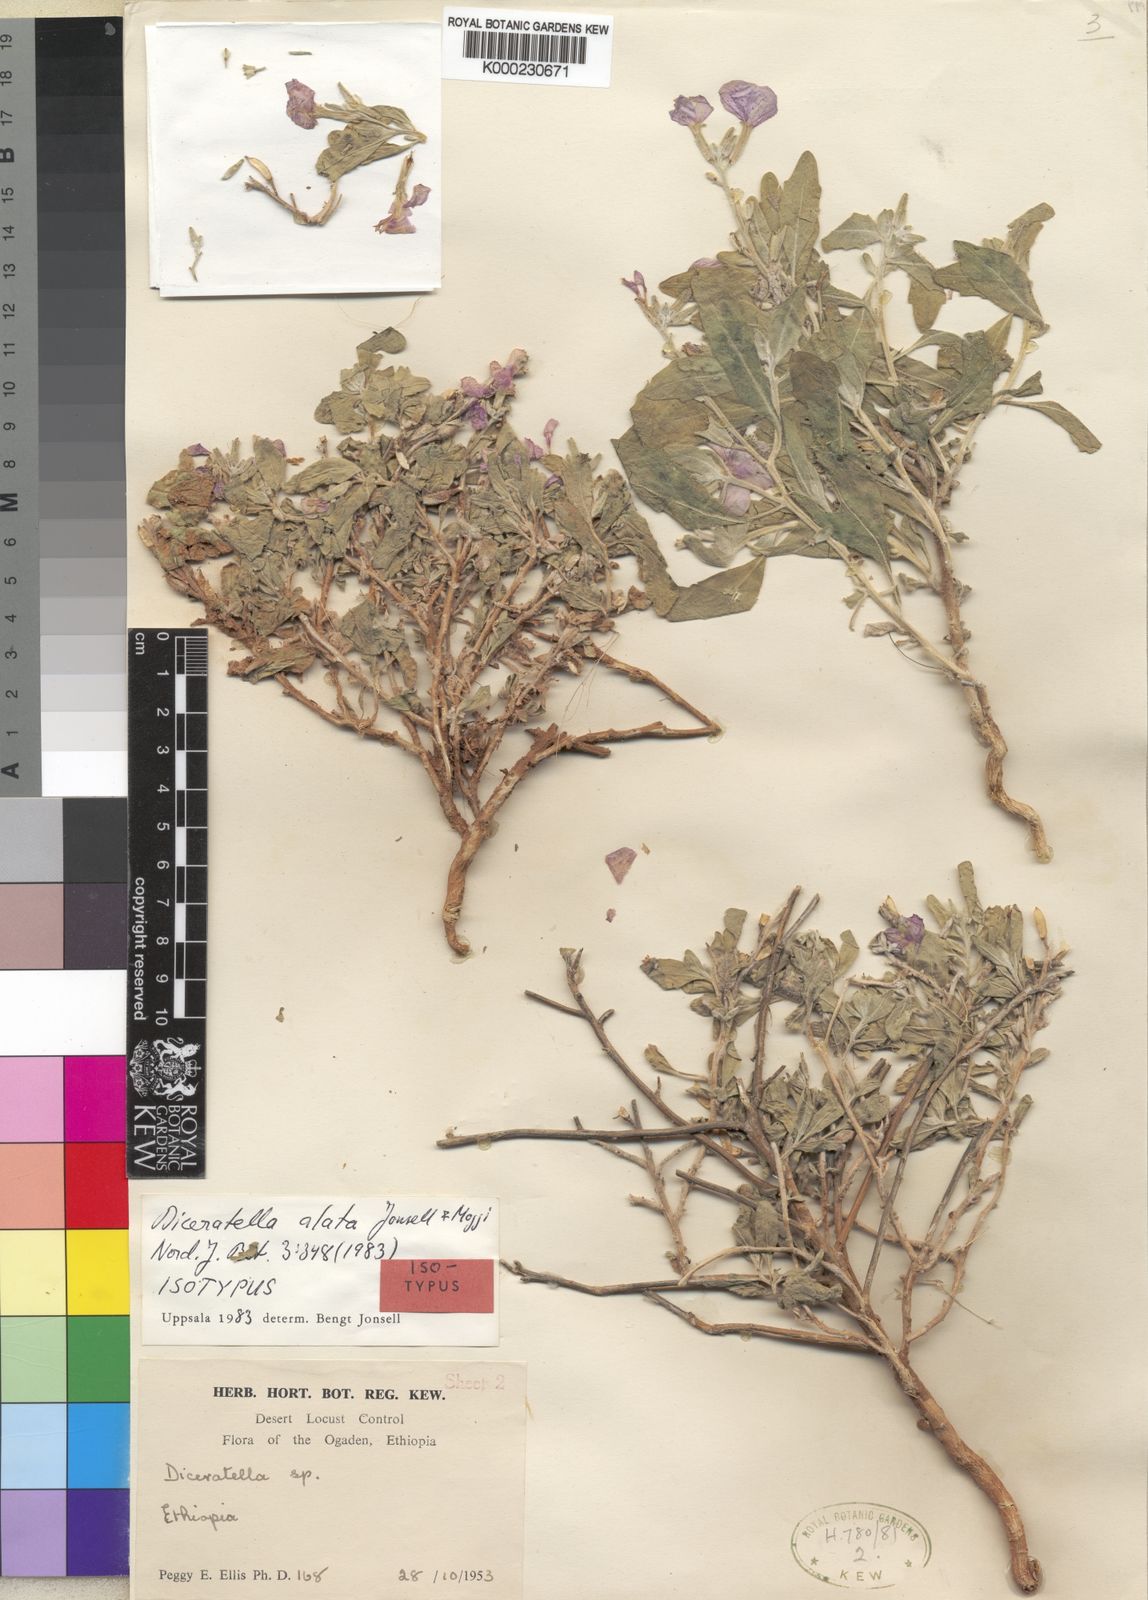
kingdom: Plantae
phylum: Tracheophyta
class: Magnoliopsida
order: Brassicales
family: Brassicaceae
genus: Diceratella
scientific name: Diceratella alata
